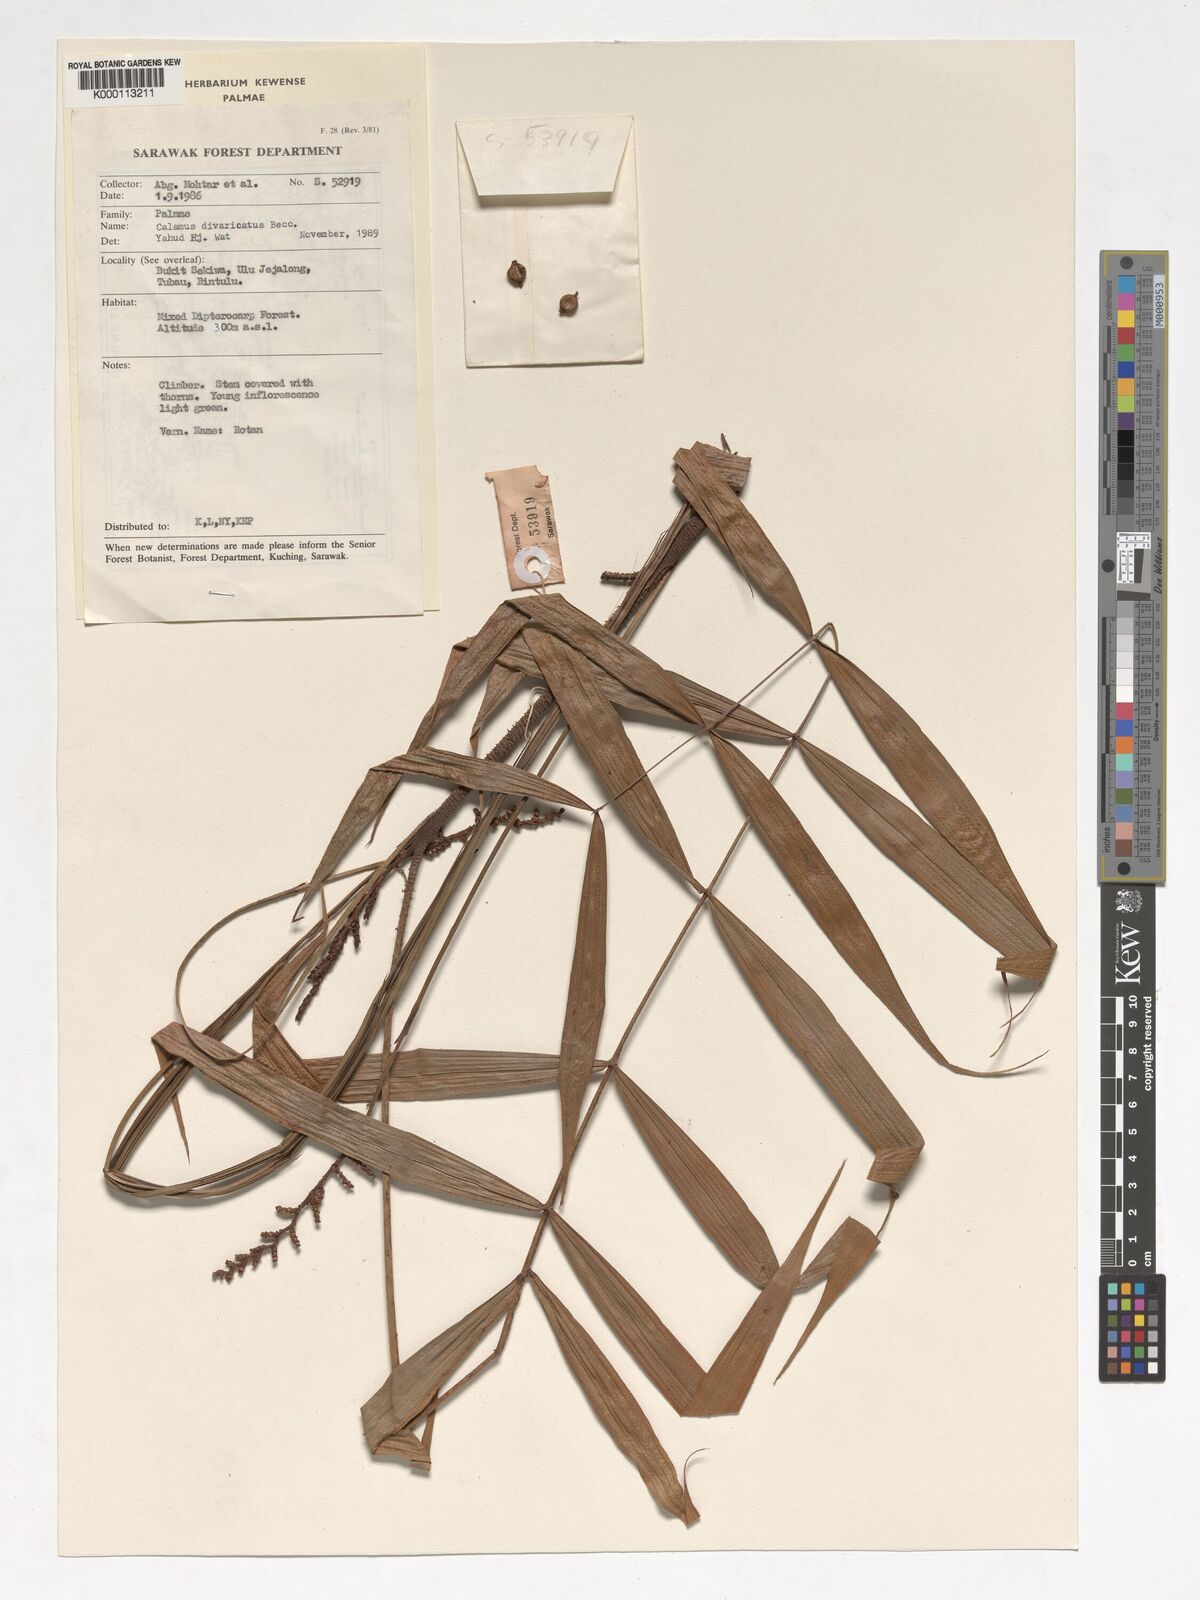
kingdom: Plantae
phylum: Tracheophyta
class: Liliopsida
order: Arecales
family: Arecaceae
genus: Calamus
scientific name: Calamus divaricatus
